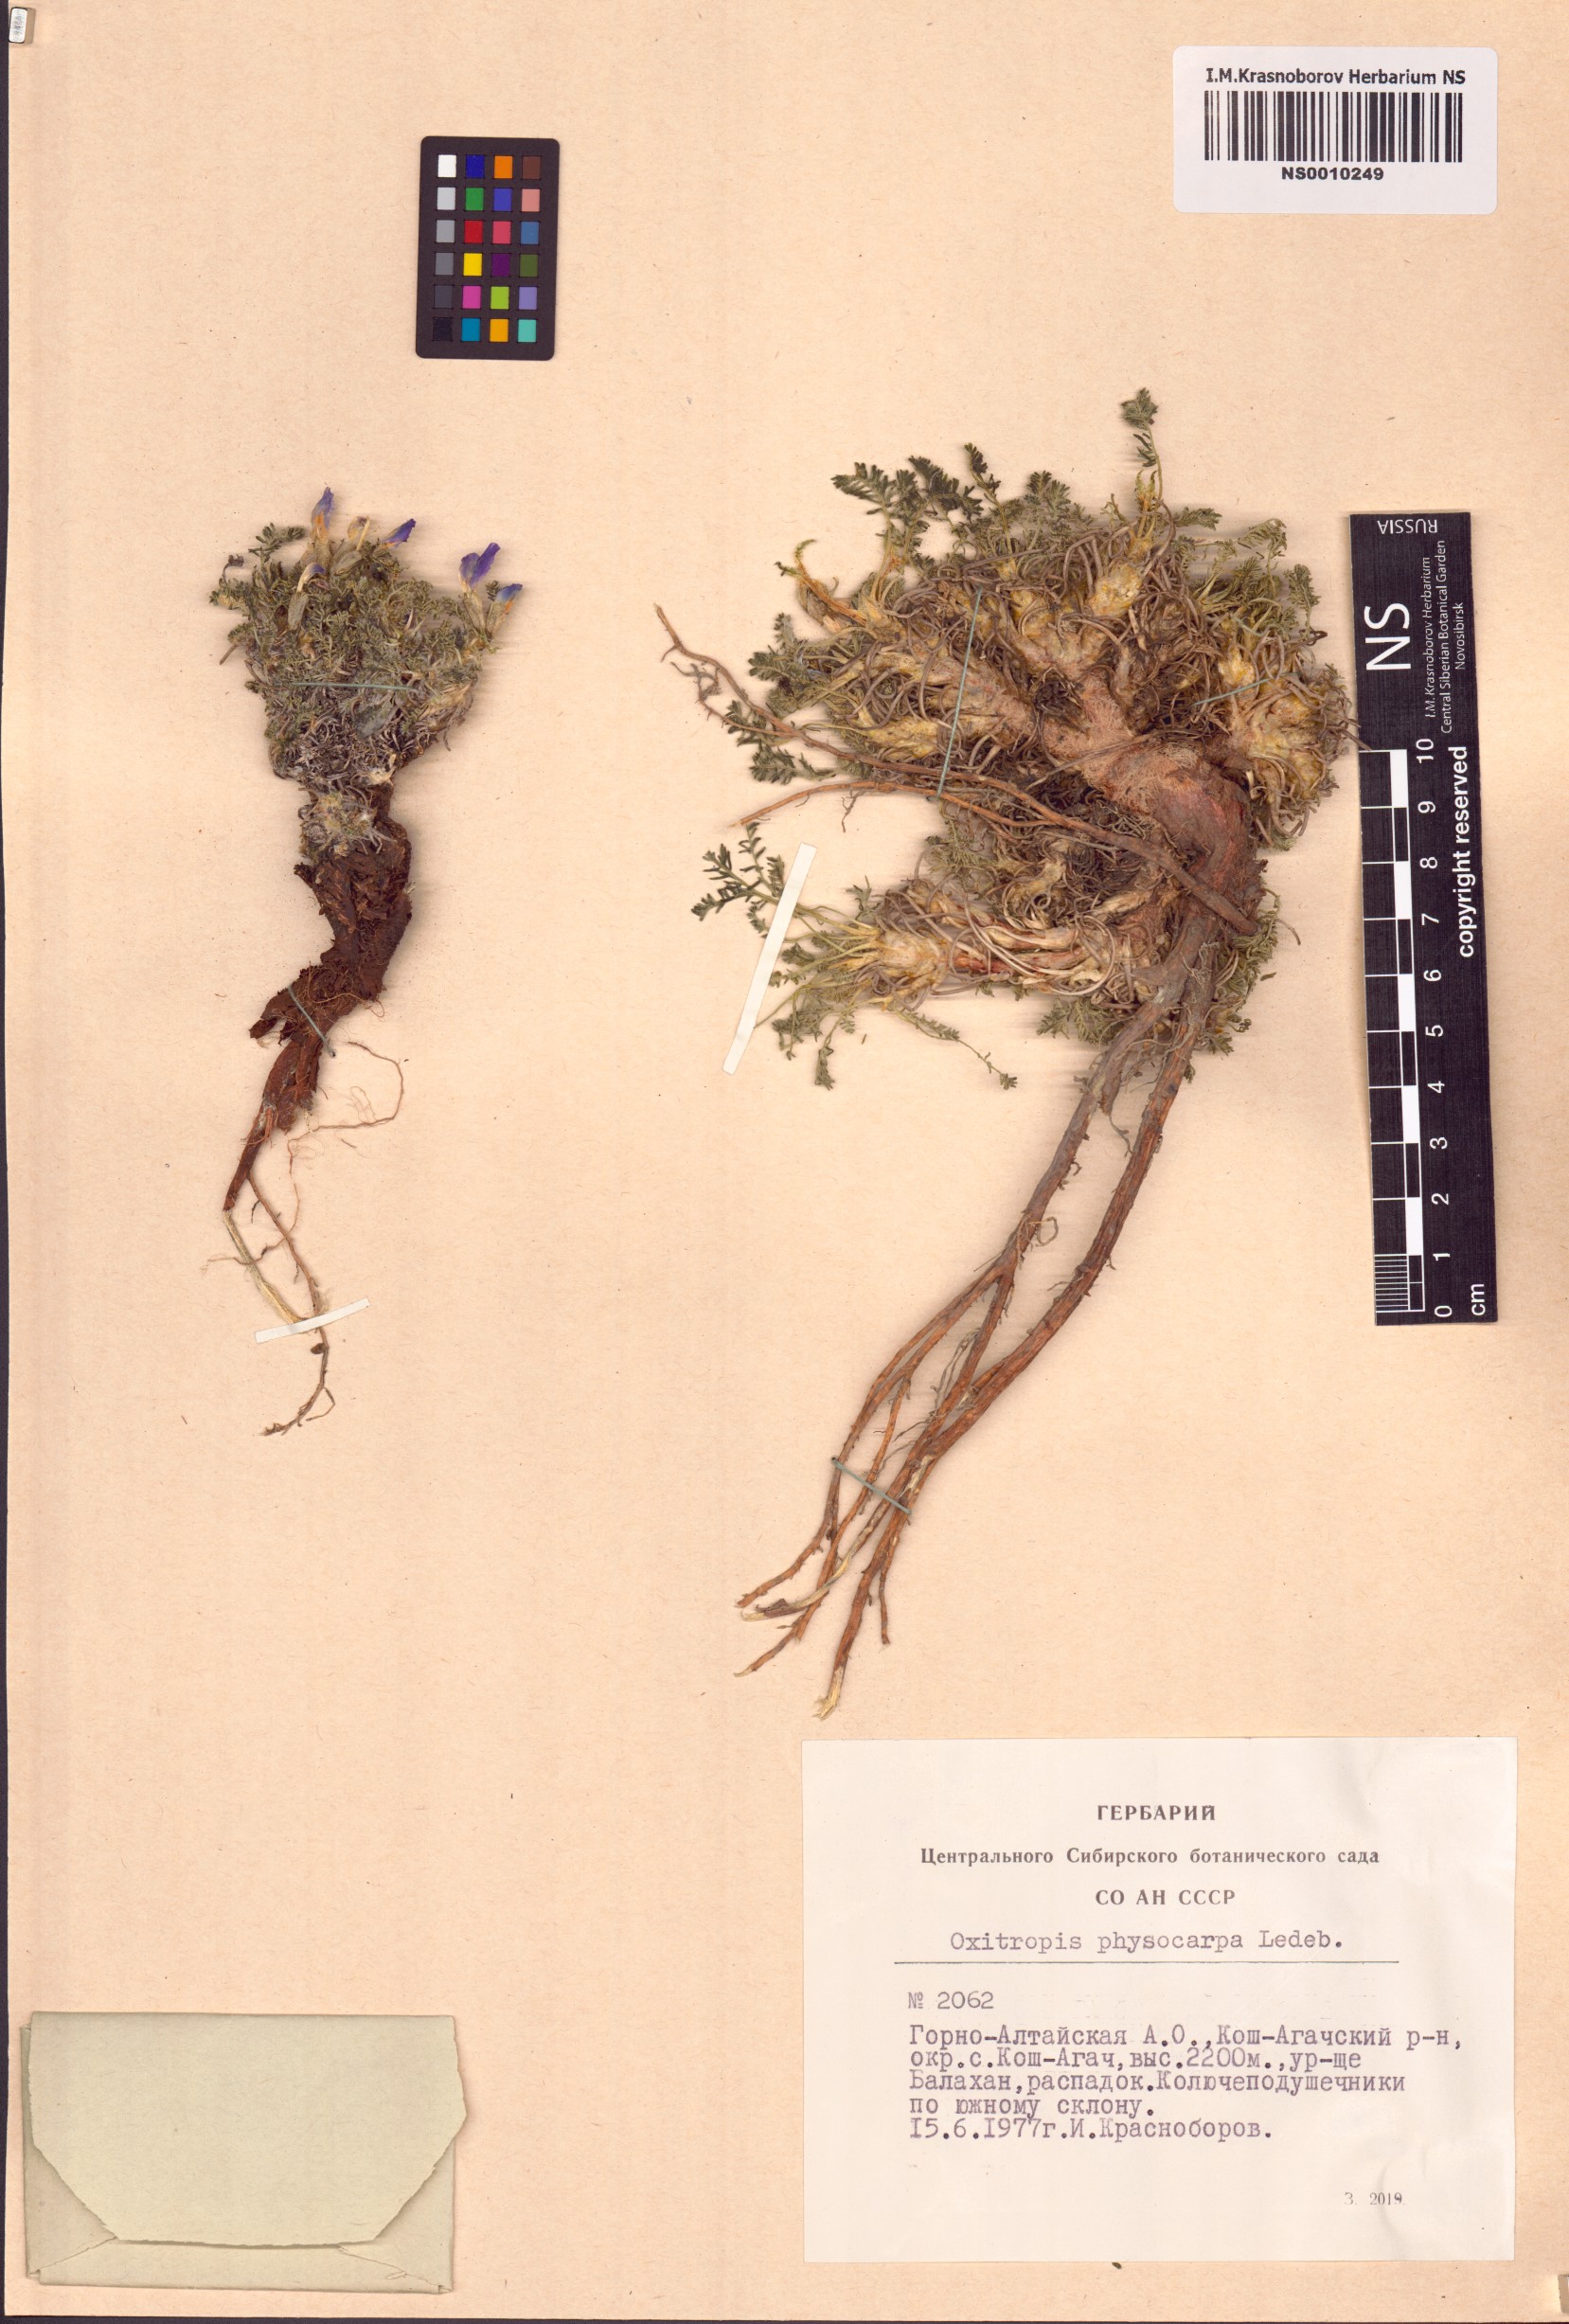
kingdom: Plantae
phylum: Tracheophyta
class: Magnoliopsida
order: Fabales
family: Fabaceae
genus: Oxytropis
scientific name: Oxytropis physocarpa
